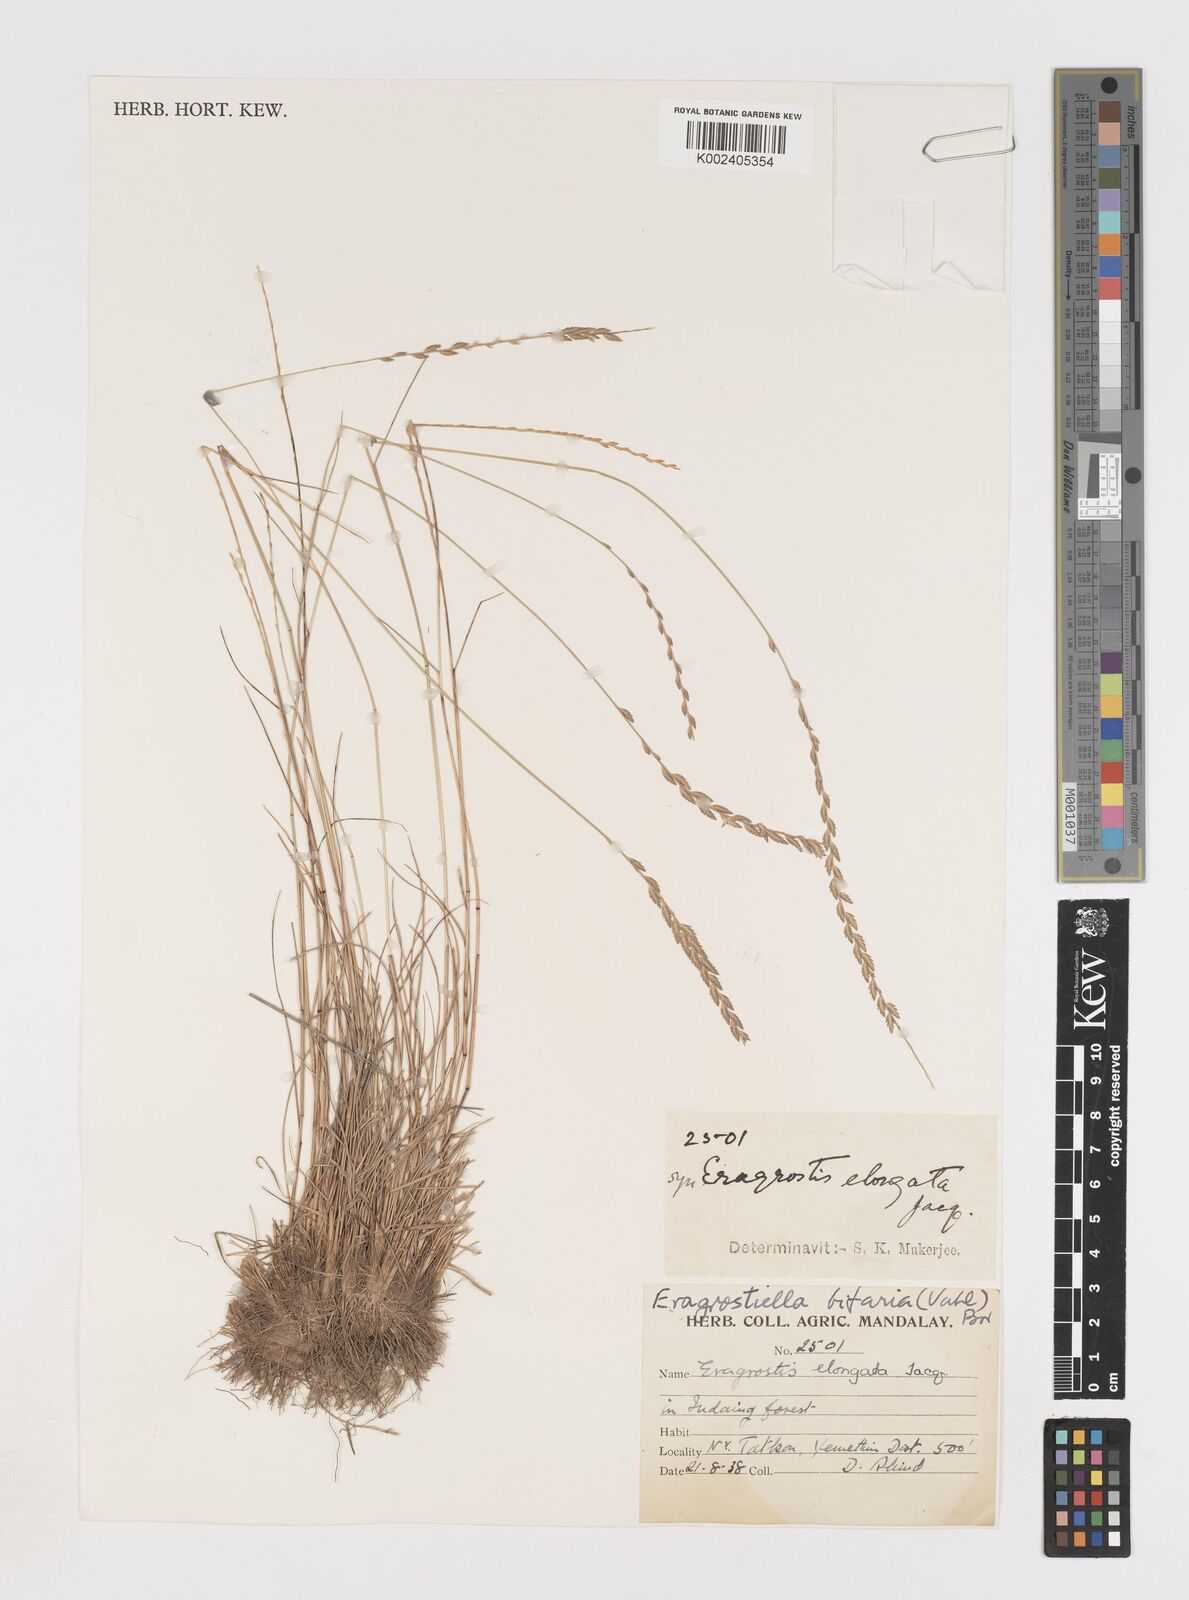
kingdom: Plantae
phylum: Tracheophyta
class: Liliopsida
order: Poales
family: Poaceae
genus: Eragrostiella
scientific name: Eragrostiella bifaria
